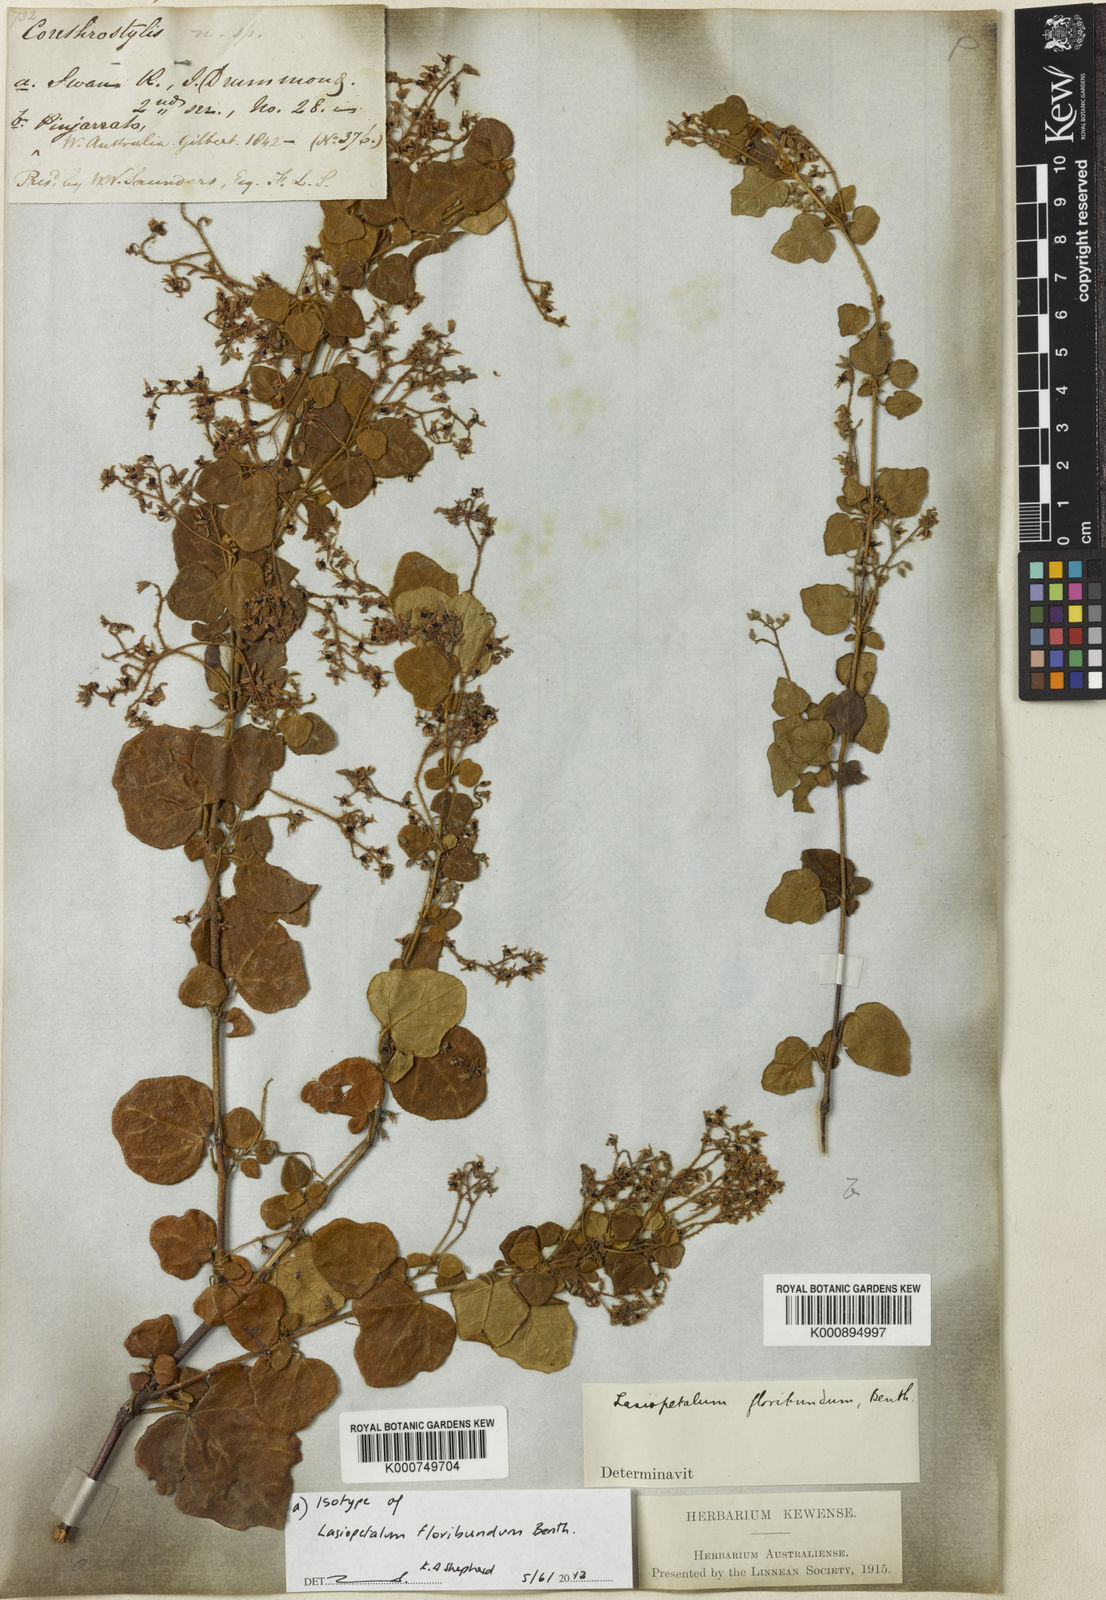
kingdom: Plantae
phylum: Tracheophyta
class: Magnoliopsida
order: Malvales
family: Malvaceae
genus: Lasiopetalum
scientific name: Lasiopetalum floribundum
